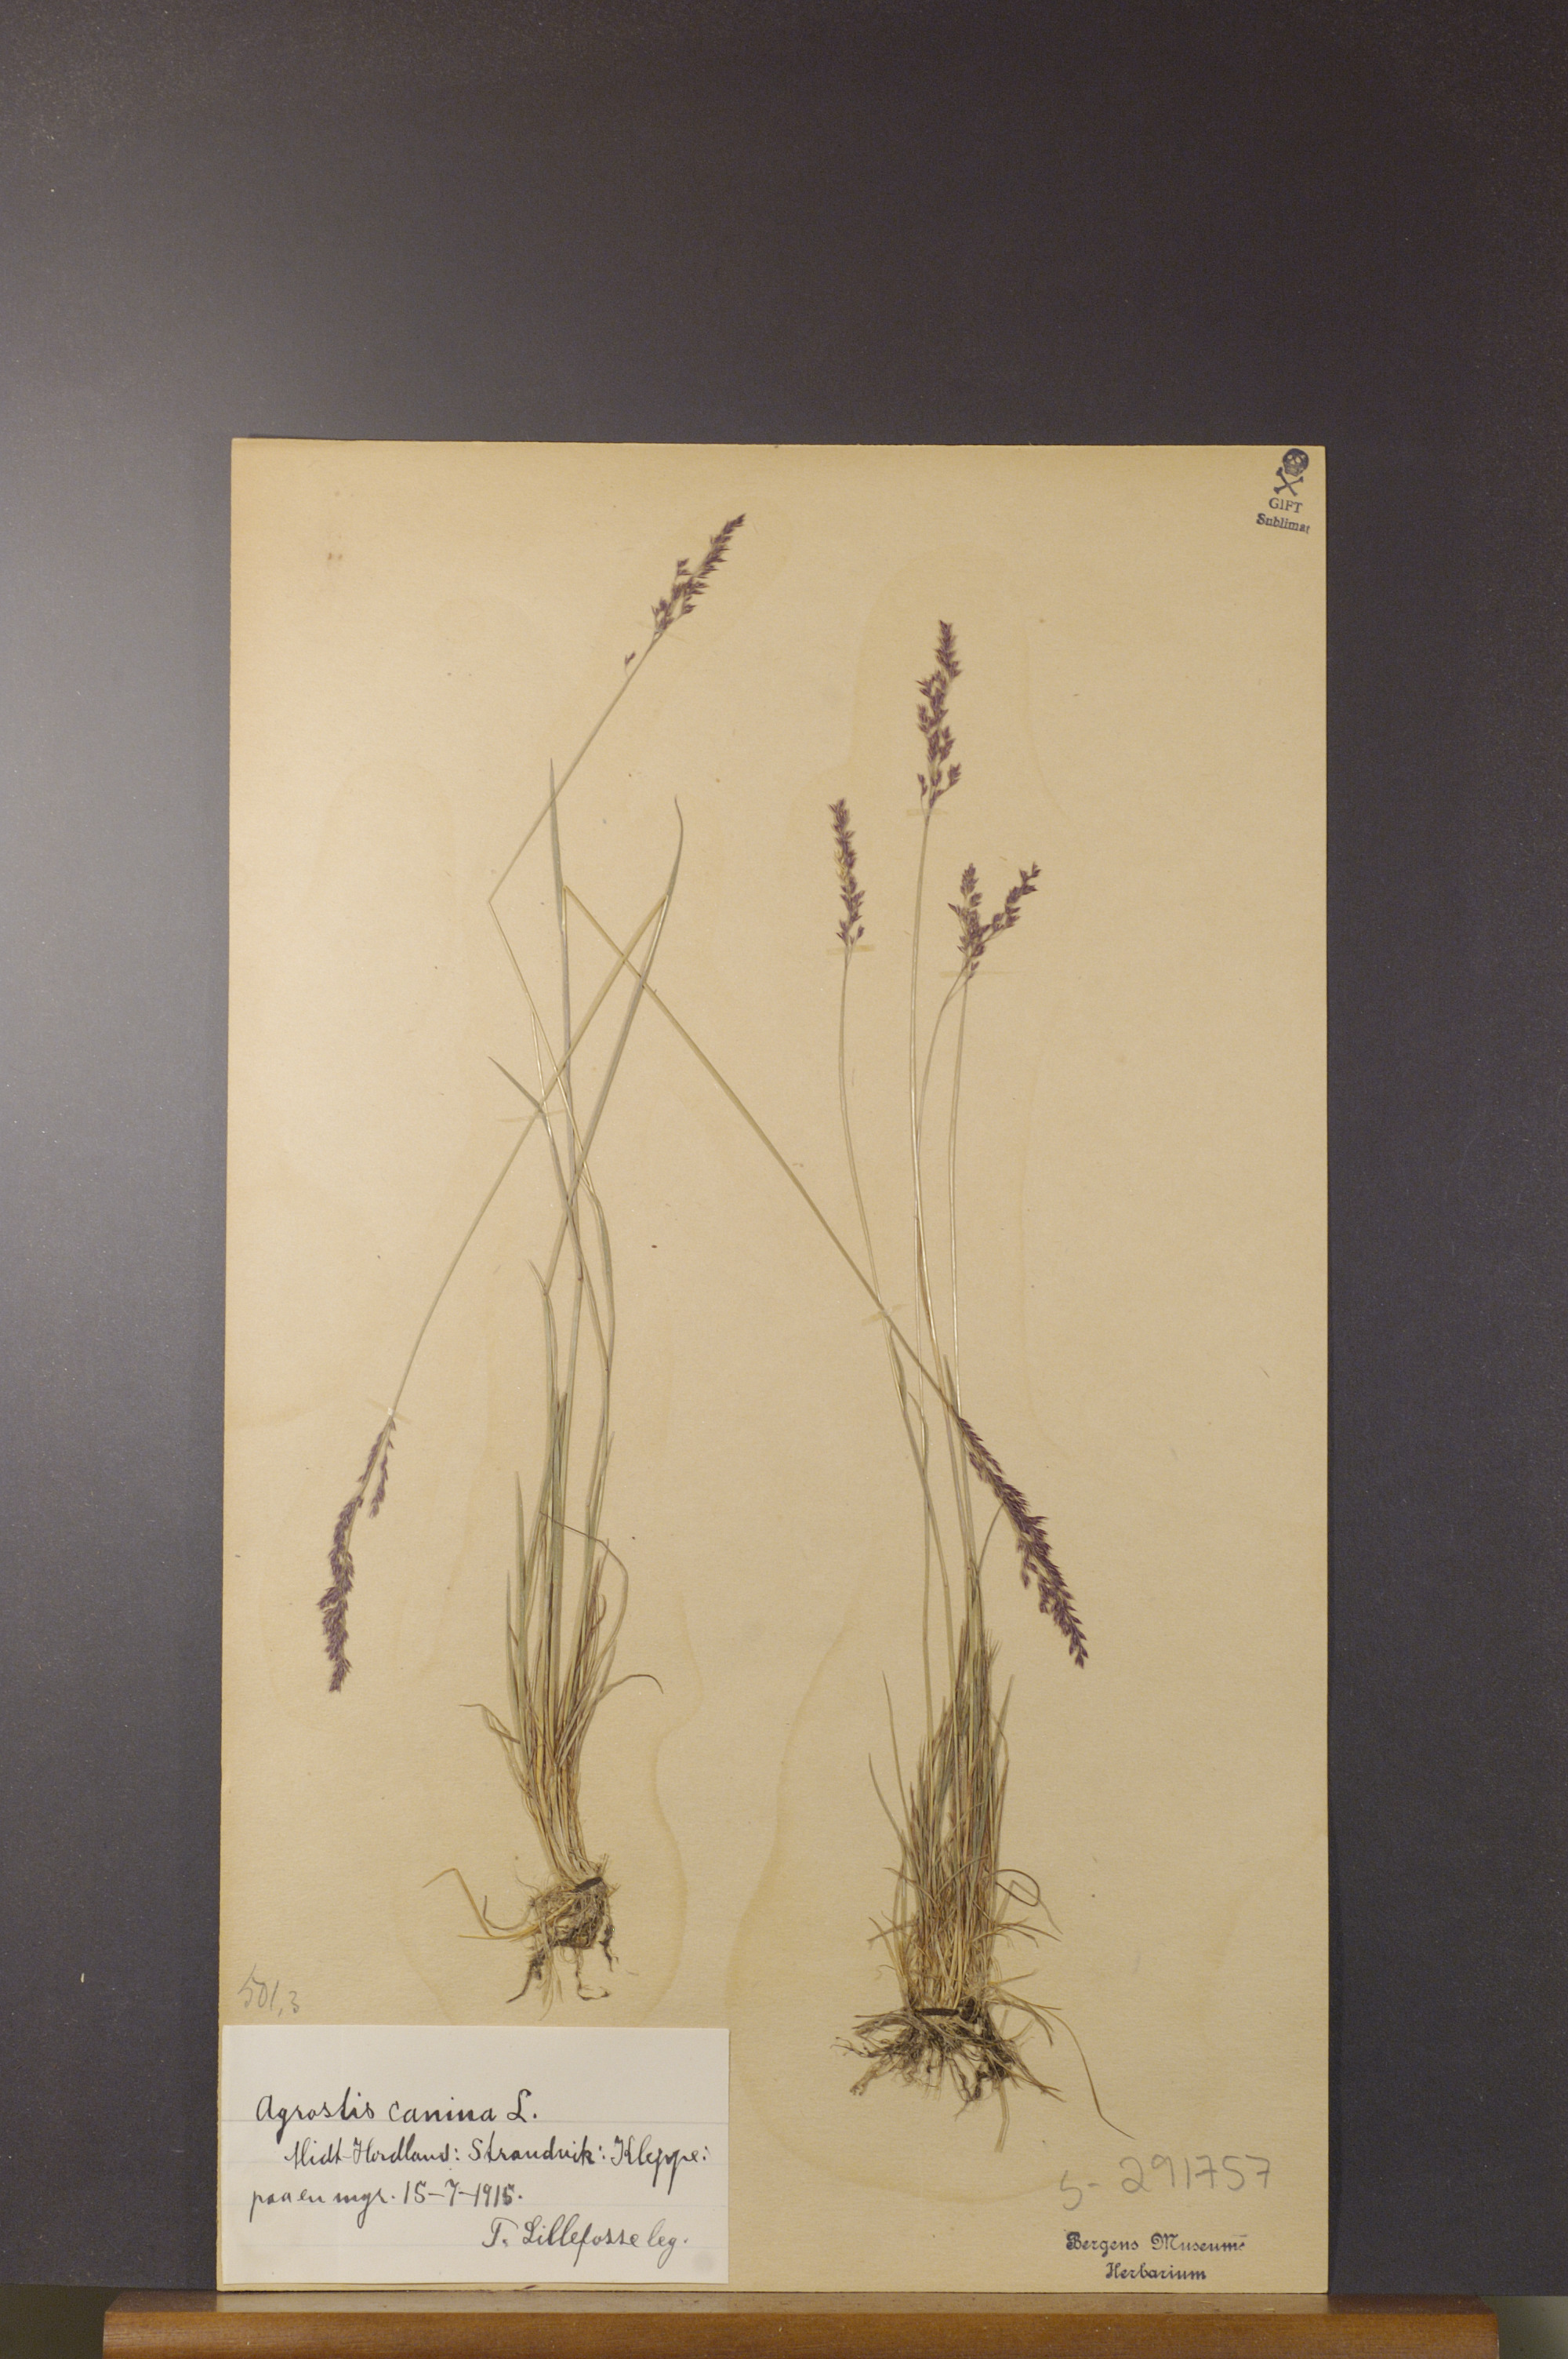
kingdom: Plantae
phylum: Tracheophyta
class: Liliopsida
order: Poales
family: Poaceae
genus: Agrostis
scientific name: Agrostis canina
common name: Velvet bent
